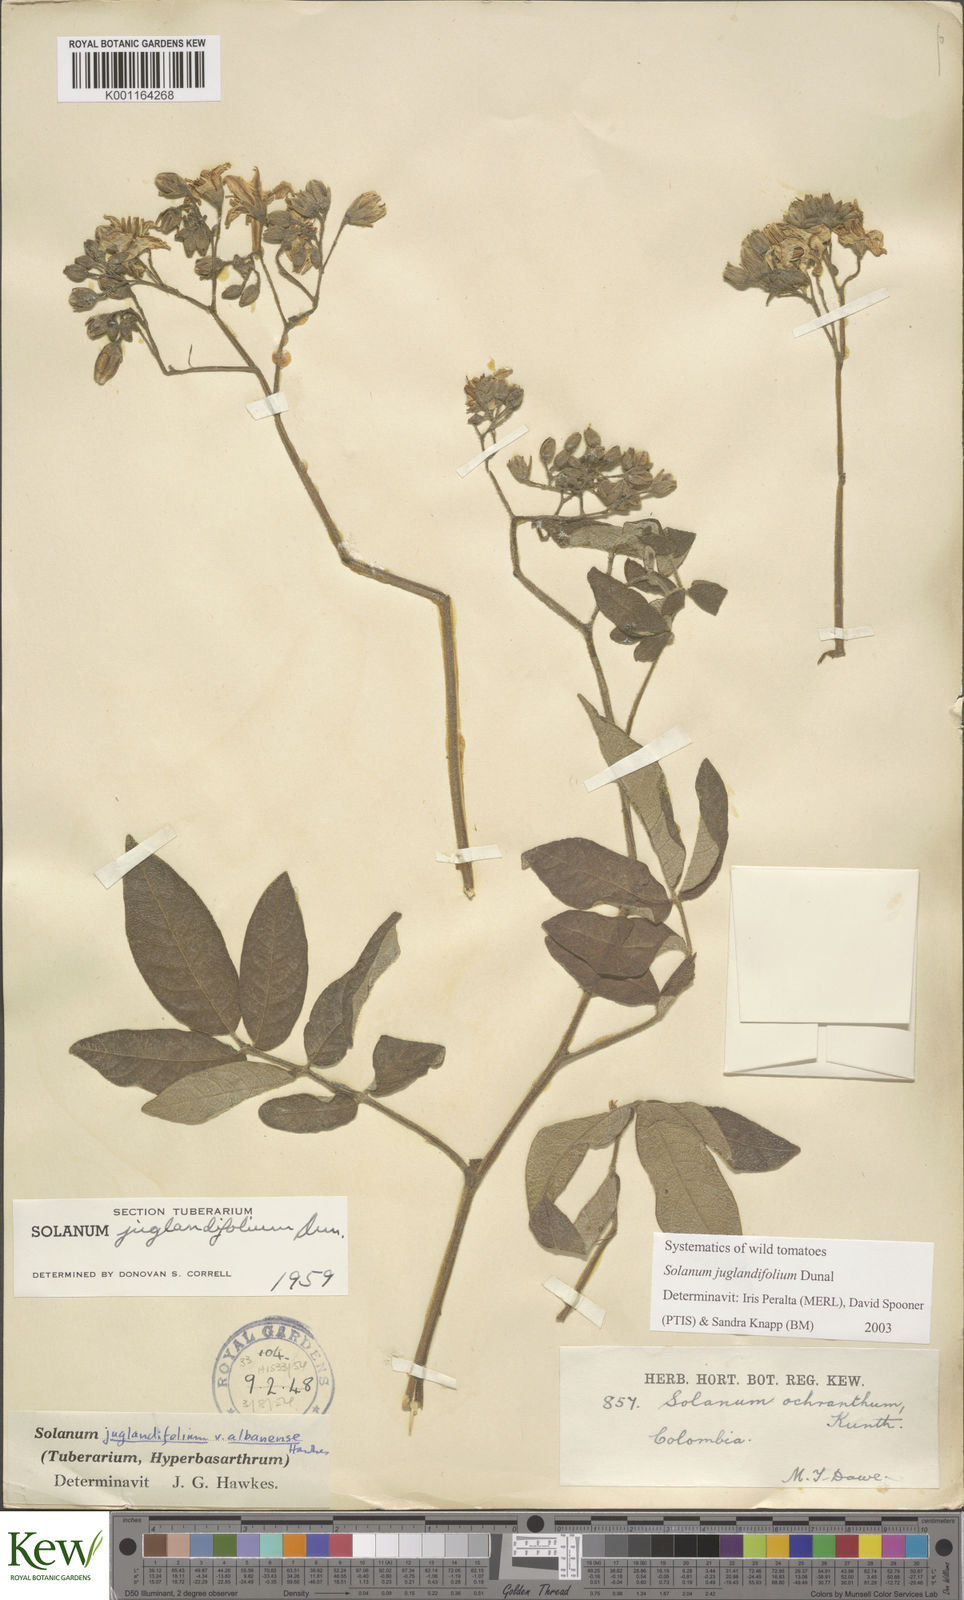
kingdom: Plantae
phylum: Tracheophyta
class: Magnoliopsida
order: Solanales
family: Solanaceae
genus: Solanum
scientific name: Solanum juglandifolium
